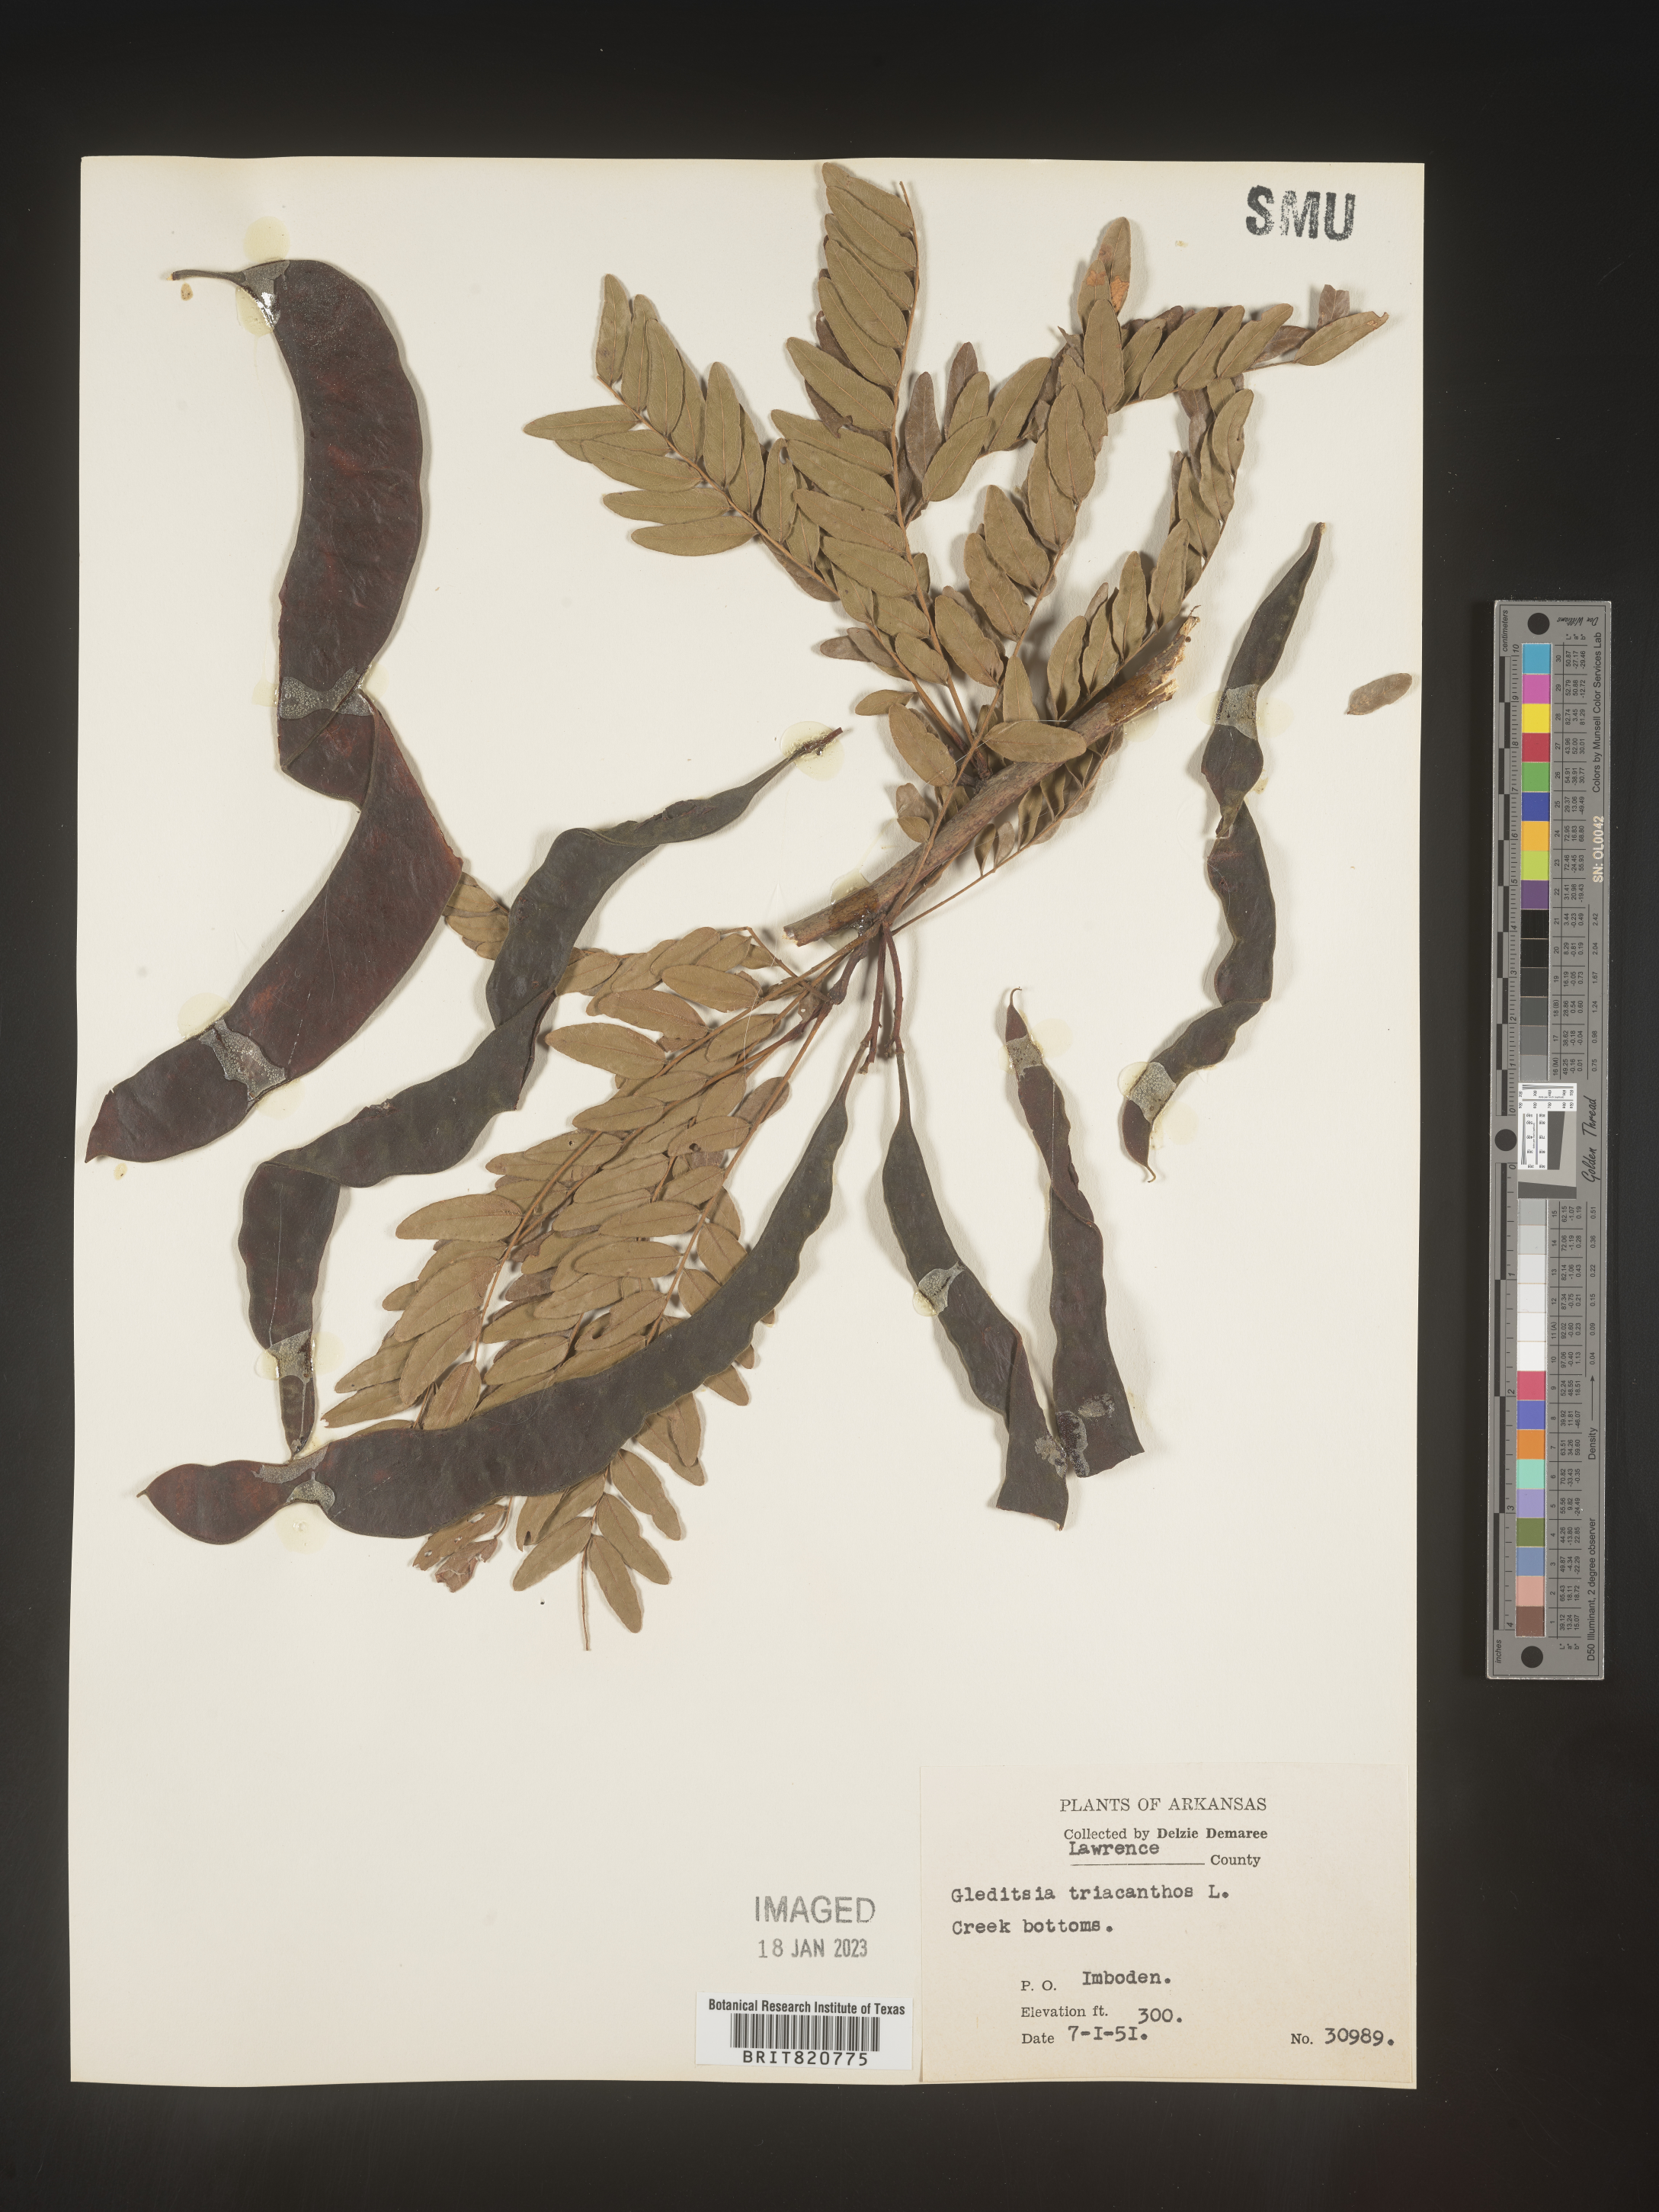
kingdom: Plantae
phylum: Tracheophyta
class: Magnoliopsida
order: Fabales
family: Fabaceae
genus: Gleditsia
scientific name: Gleditsia triacanthos
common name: Common honeylocust
